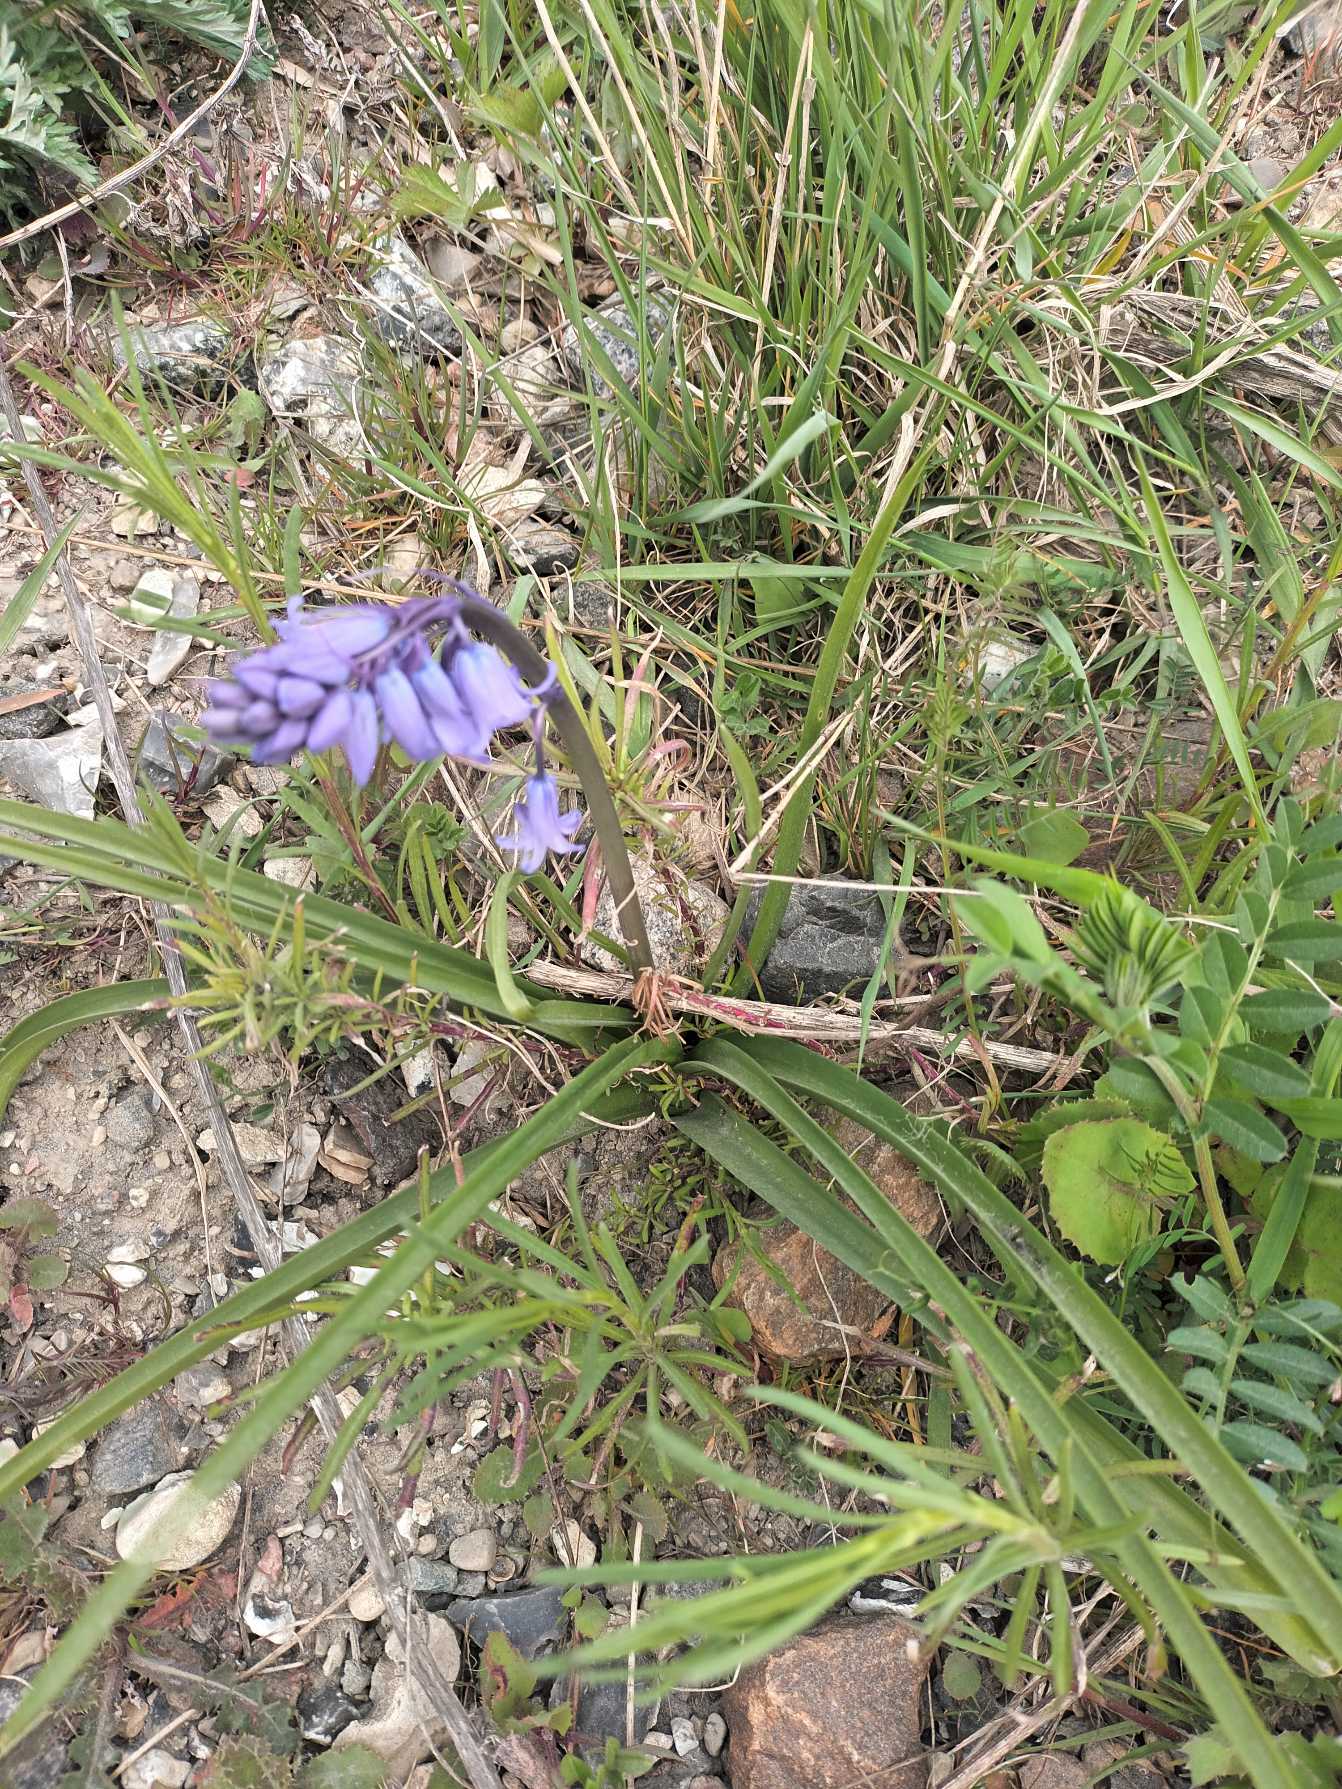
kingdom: Plantae
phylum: Tracheophyta
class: Liliopsida
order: Asparagales
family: Asparagaceae
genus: Hyacinthoides
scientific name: Hyacinthoides massartiana
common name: Hybrid-klokkeskilla
